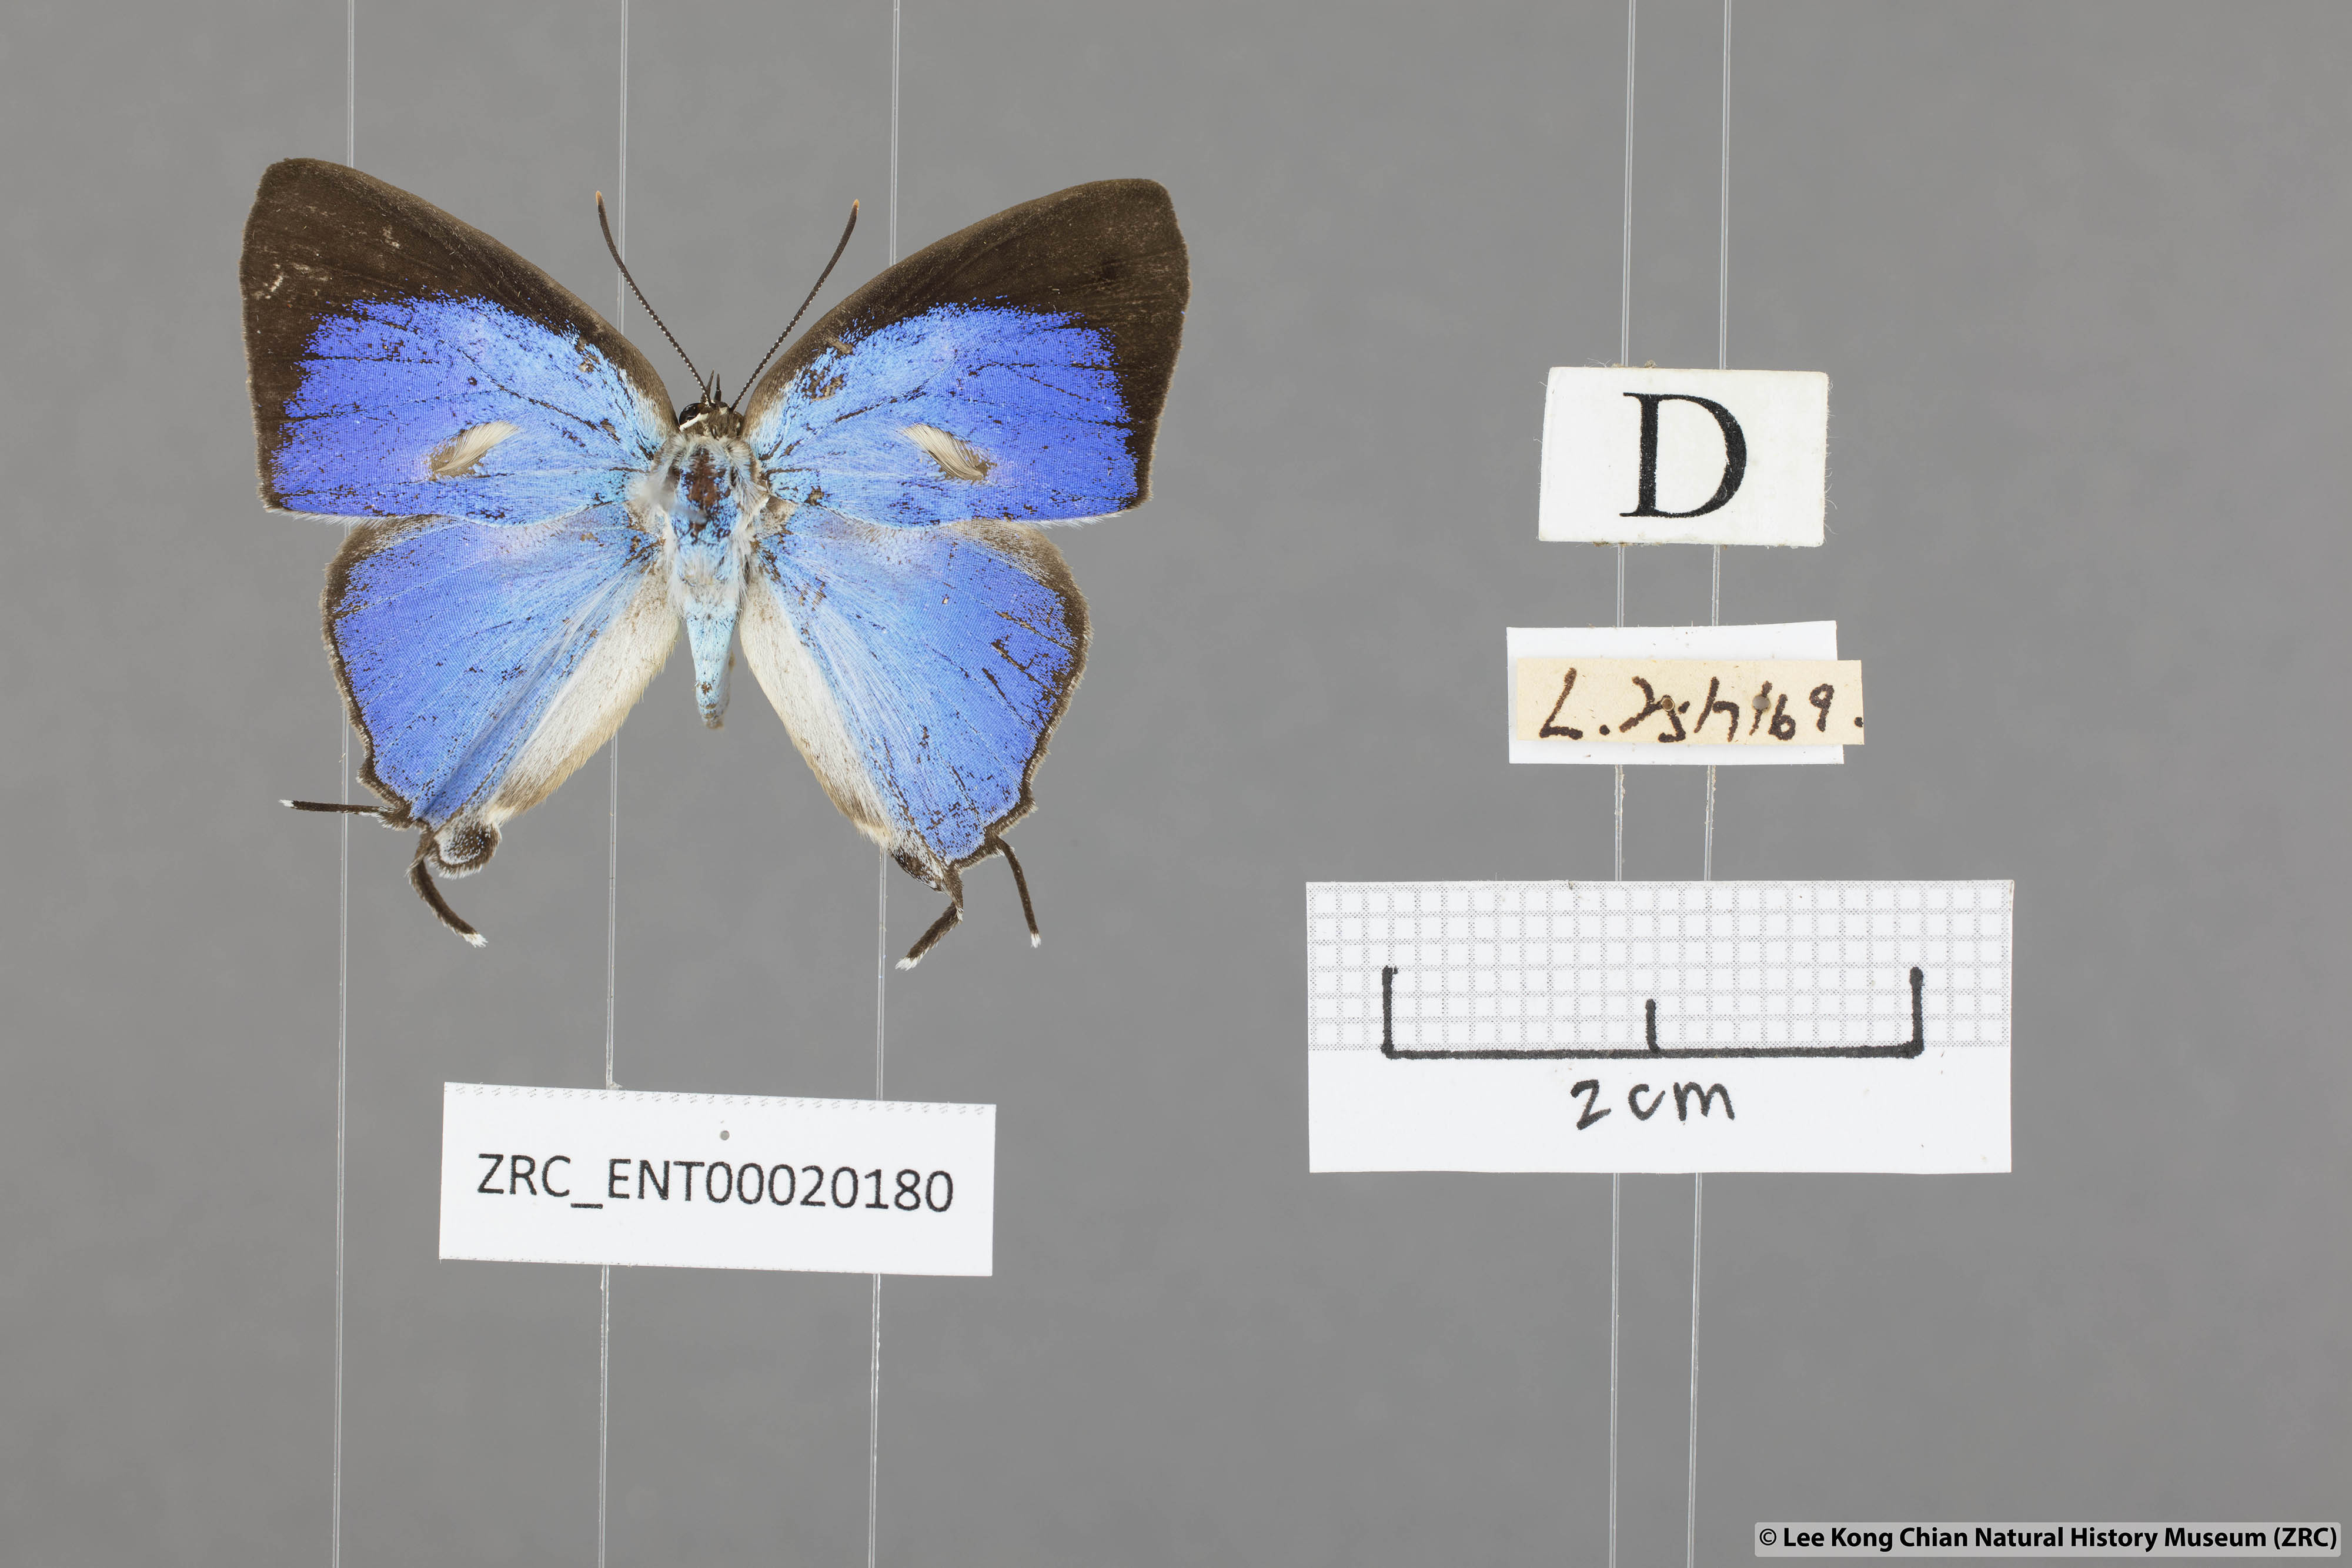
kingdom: Animalia
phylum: Arthropoda
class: Insecta
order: Lepidoptera
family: Lycaenidae
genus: Dacalana
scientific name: Dacalana vidura
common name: Medium-branded royal
